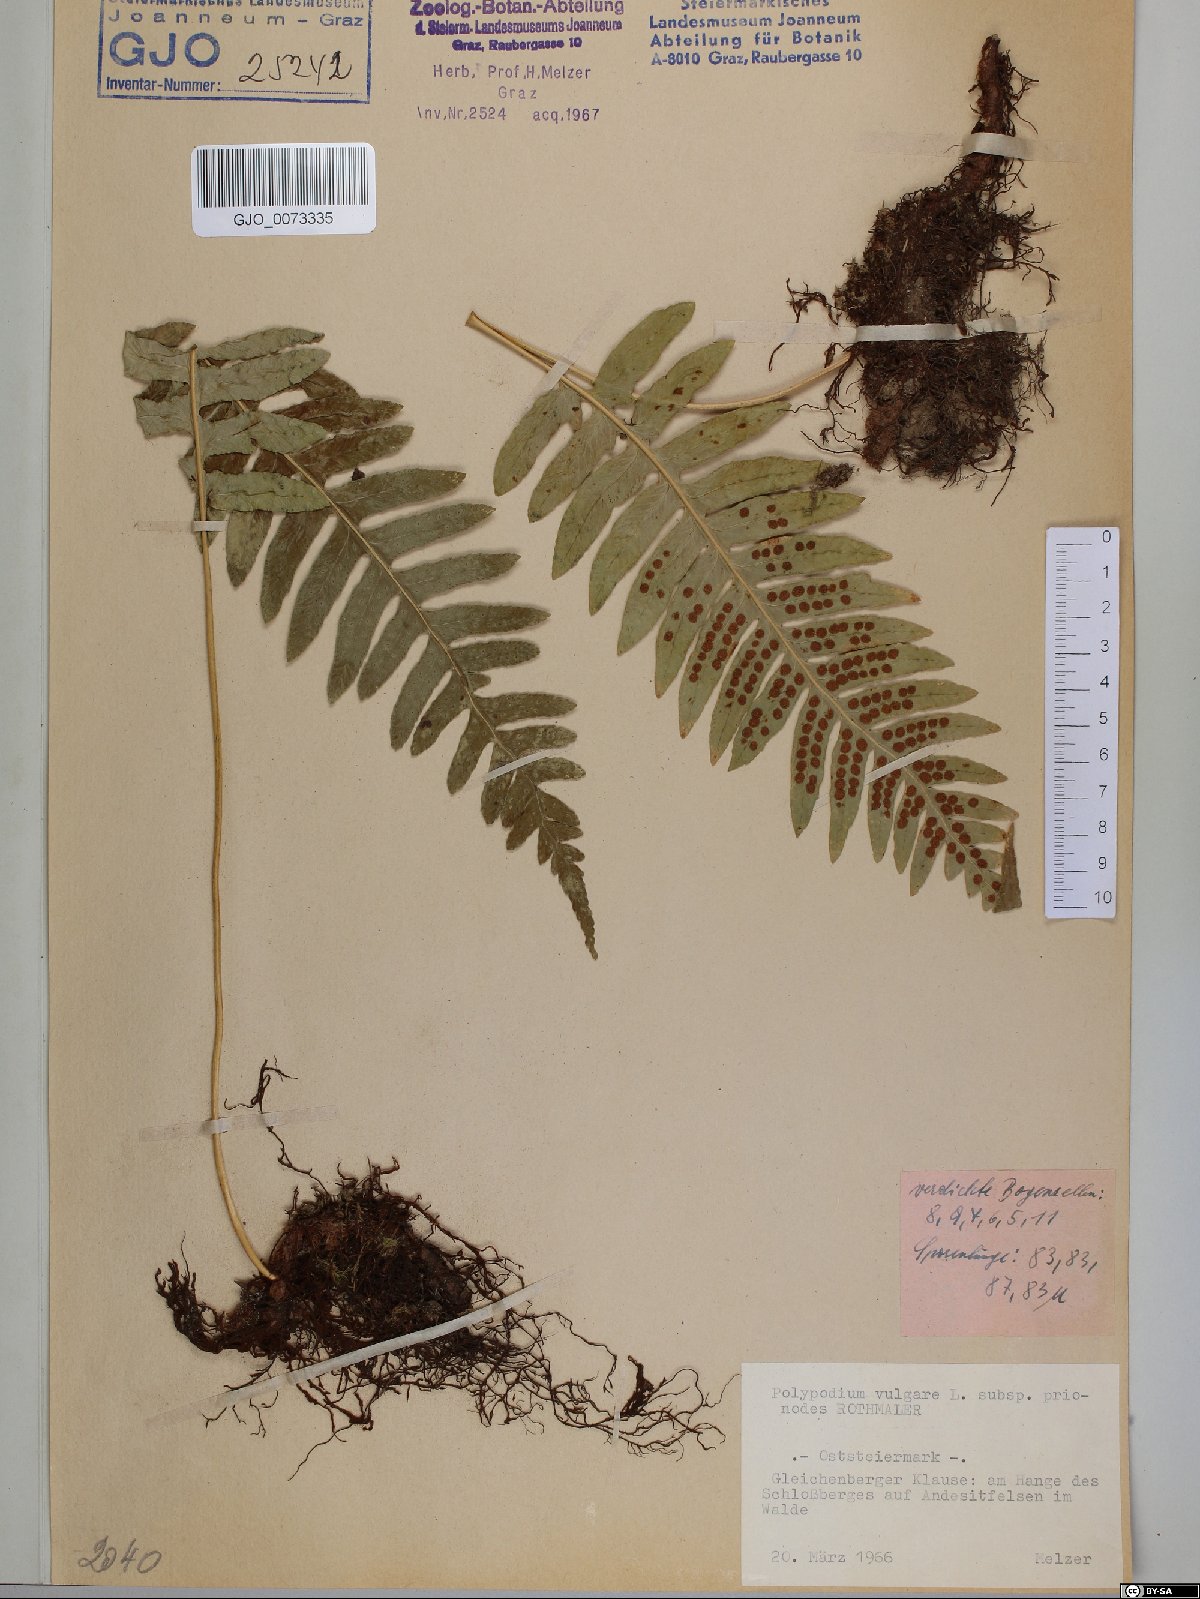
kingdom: Plantae
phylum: Tracheophyta
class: Polypodiopsida
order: Polypodiales
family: Polypodiaceae
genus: Polypodium
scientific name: Polypodium interjectum
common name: Intermediate polypody
